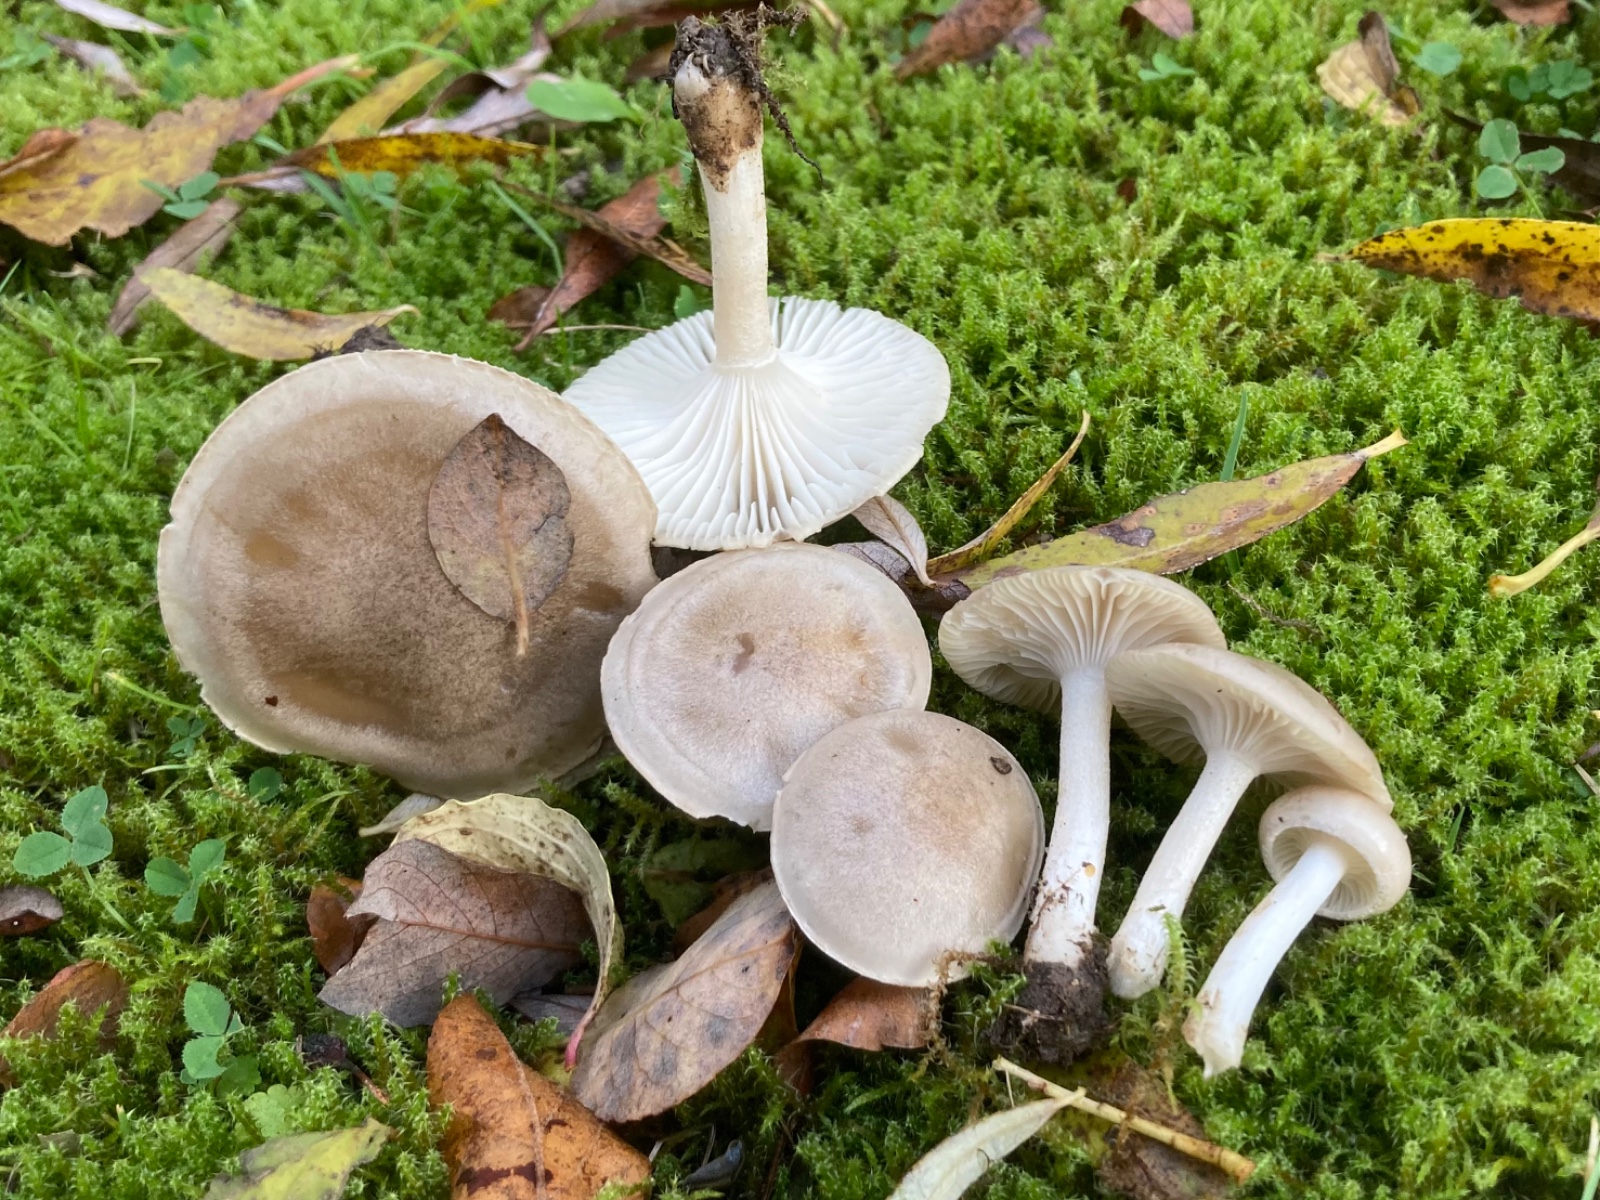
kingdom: Fungi
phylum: Basidiomycota
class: Agaricomycetes
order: Agaricales
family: Hygrophoraceae
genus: Hygrophorus
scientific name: Hygrophorus agathosmus
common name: vellugtende sneglehat
